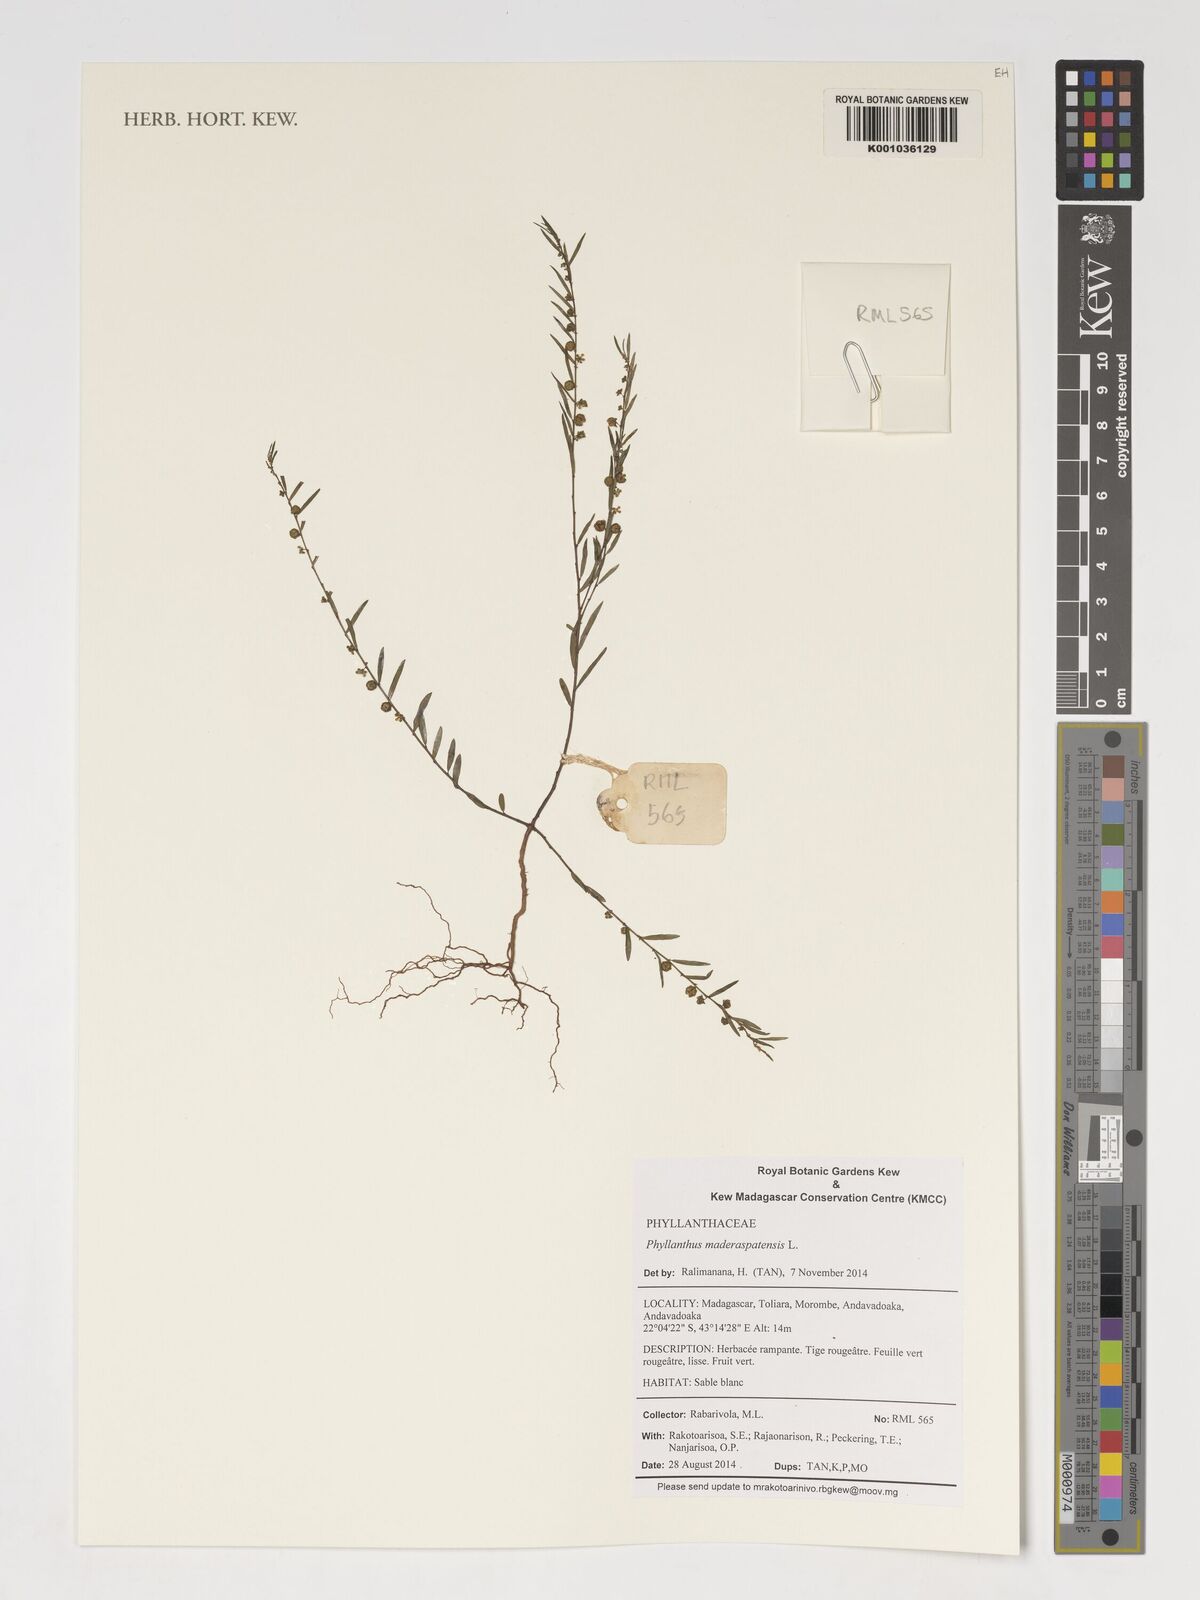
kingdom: Plantae
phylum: Tracheophyta
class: Magnoliopsida
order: Malpighiales
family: Phyllanthaceae
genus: Phyllanthus
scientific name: Phyllanthus maderaspatensis
